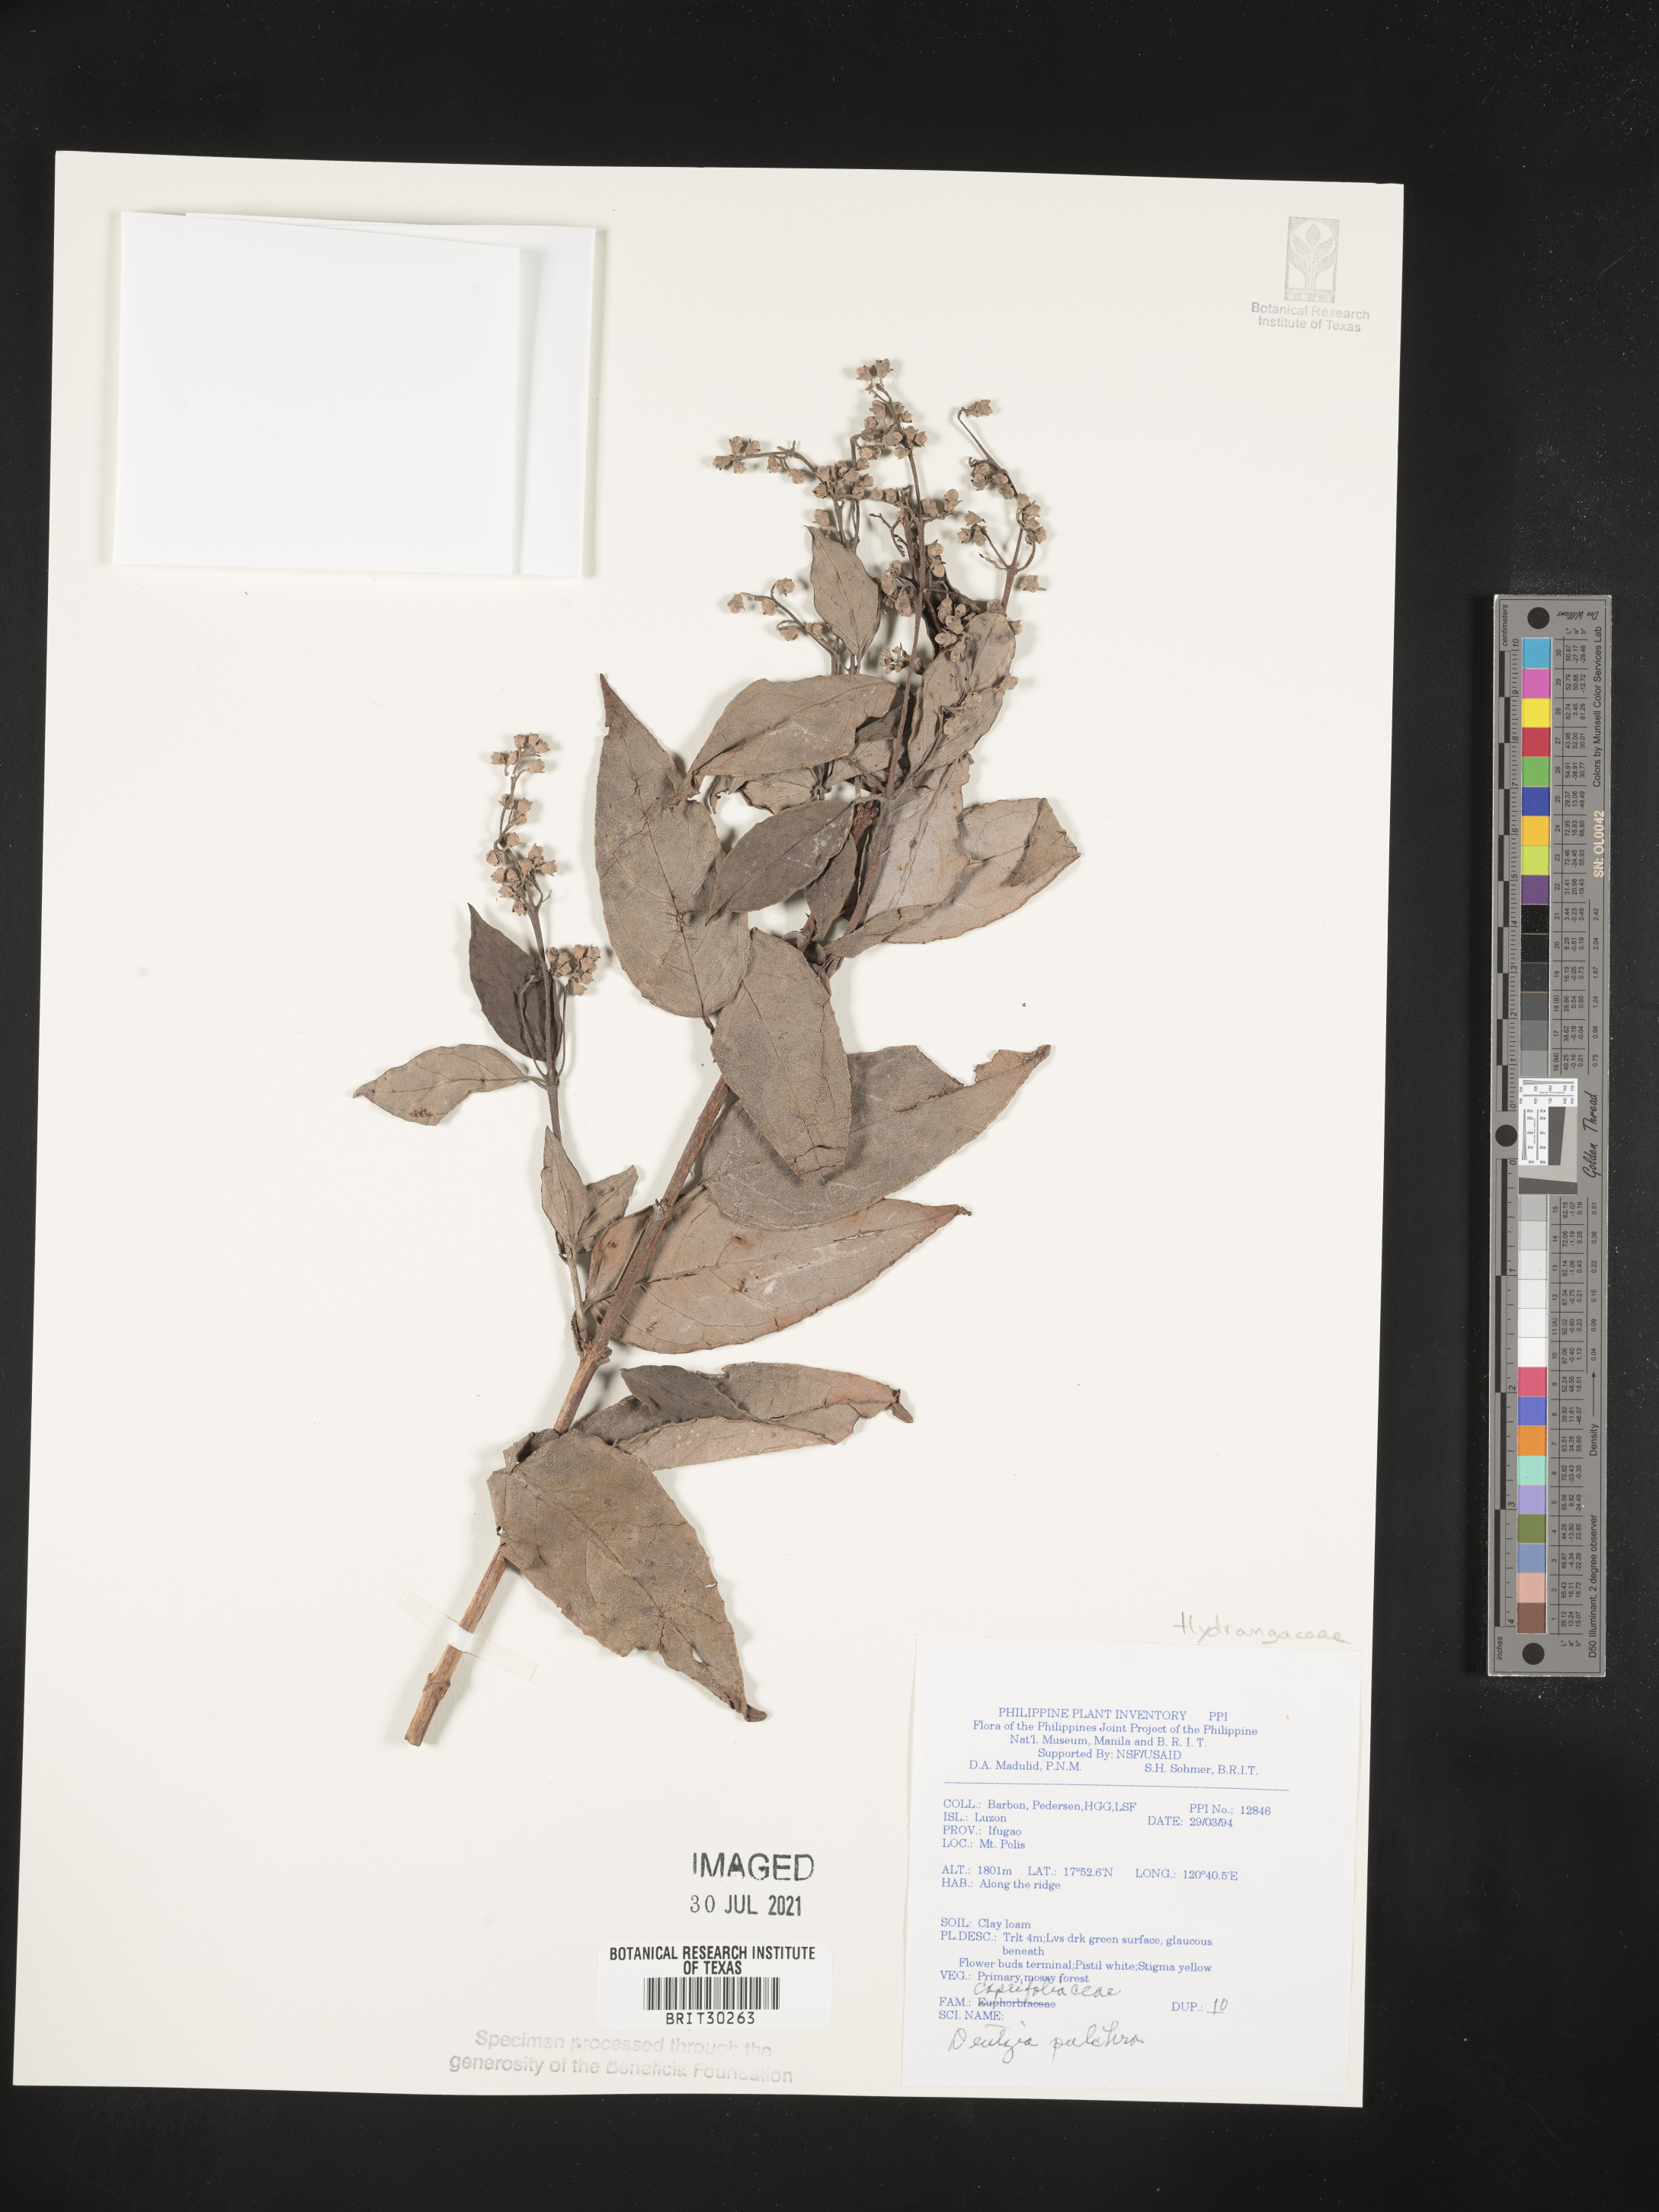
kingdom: Plantae
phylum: Tracheophyta
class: Magnoliopsida
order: Cornales
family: Hydrangeaceae
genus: Deutzia
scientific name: Deutzia pulchra
